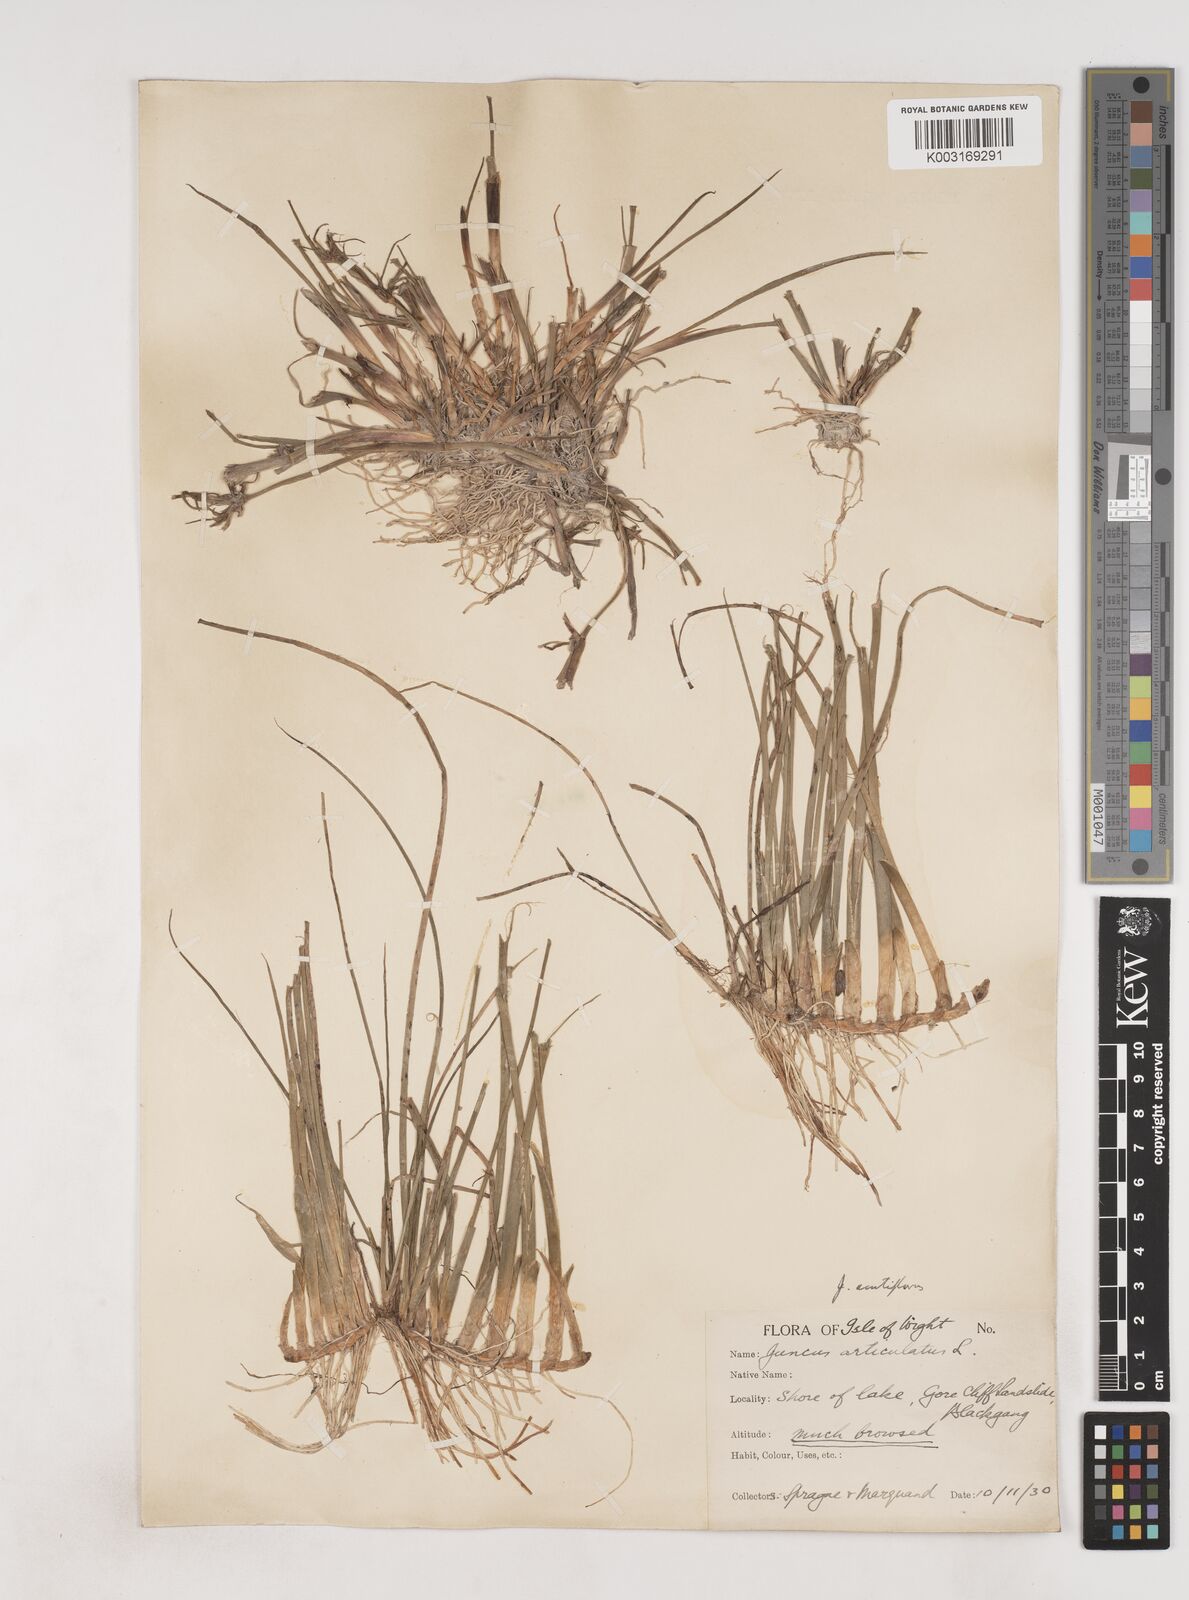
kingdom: Plantae
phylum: Tracheophyta
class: Liliopsida
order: Poales
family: Juncaceae
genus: Juncus
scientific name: Juncus acutiflorus
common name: Sharp-flowered rush
